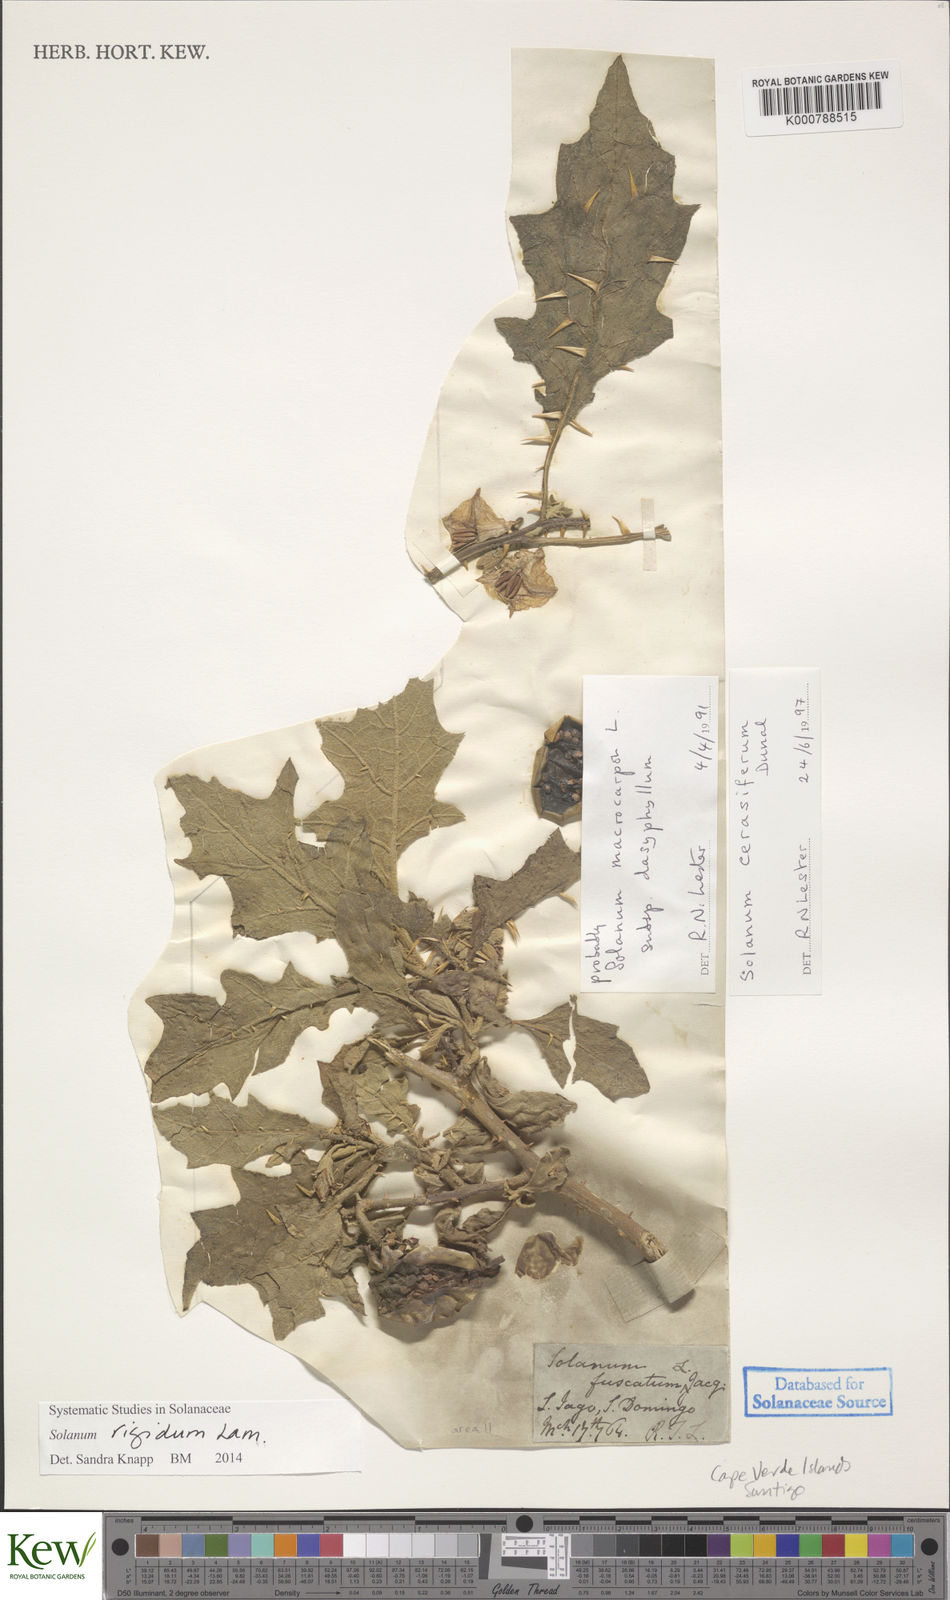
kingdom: Plantae
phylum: Tracheophyta
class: Magnoliopsida
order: Solanales
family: Solanaceae
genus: Solanum
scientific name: Solanum rigidum
